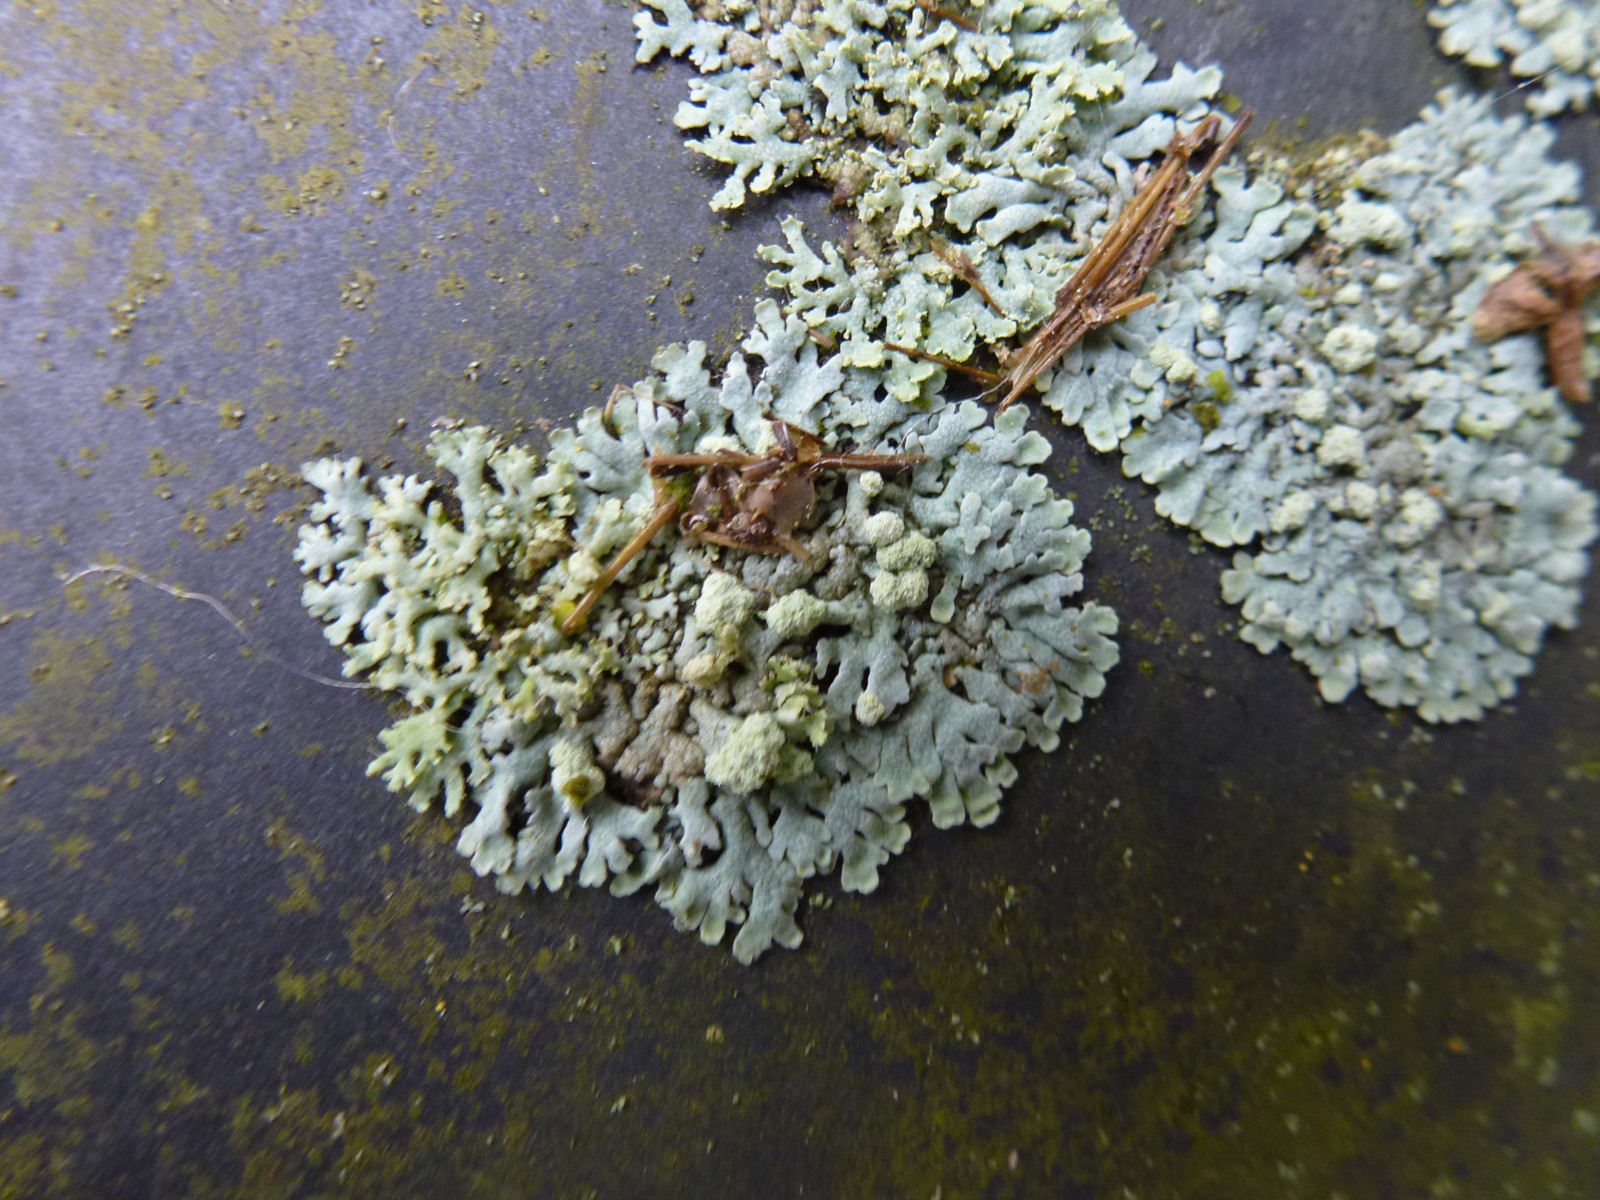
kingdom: Fungi
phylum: Ascomycota
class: Lecanoromycetes
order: Caliciales
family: Physciaceae
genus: Physcia
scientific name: Physcia caesia
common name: blågrå rosetlav
